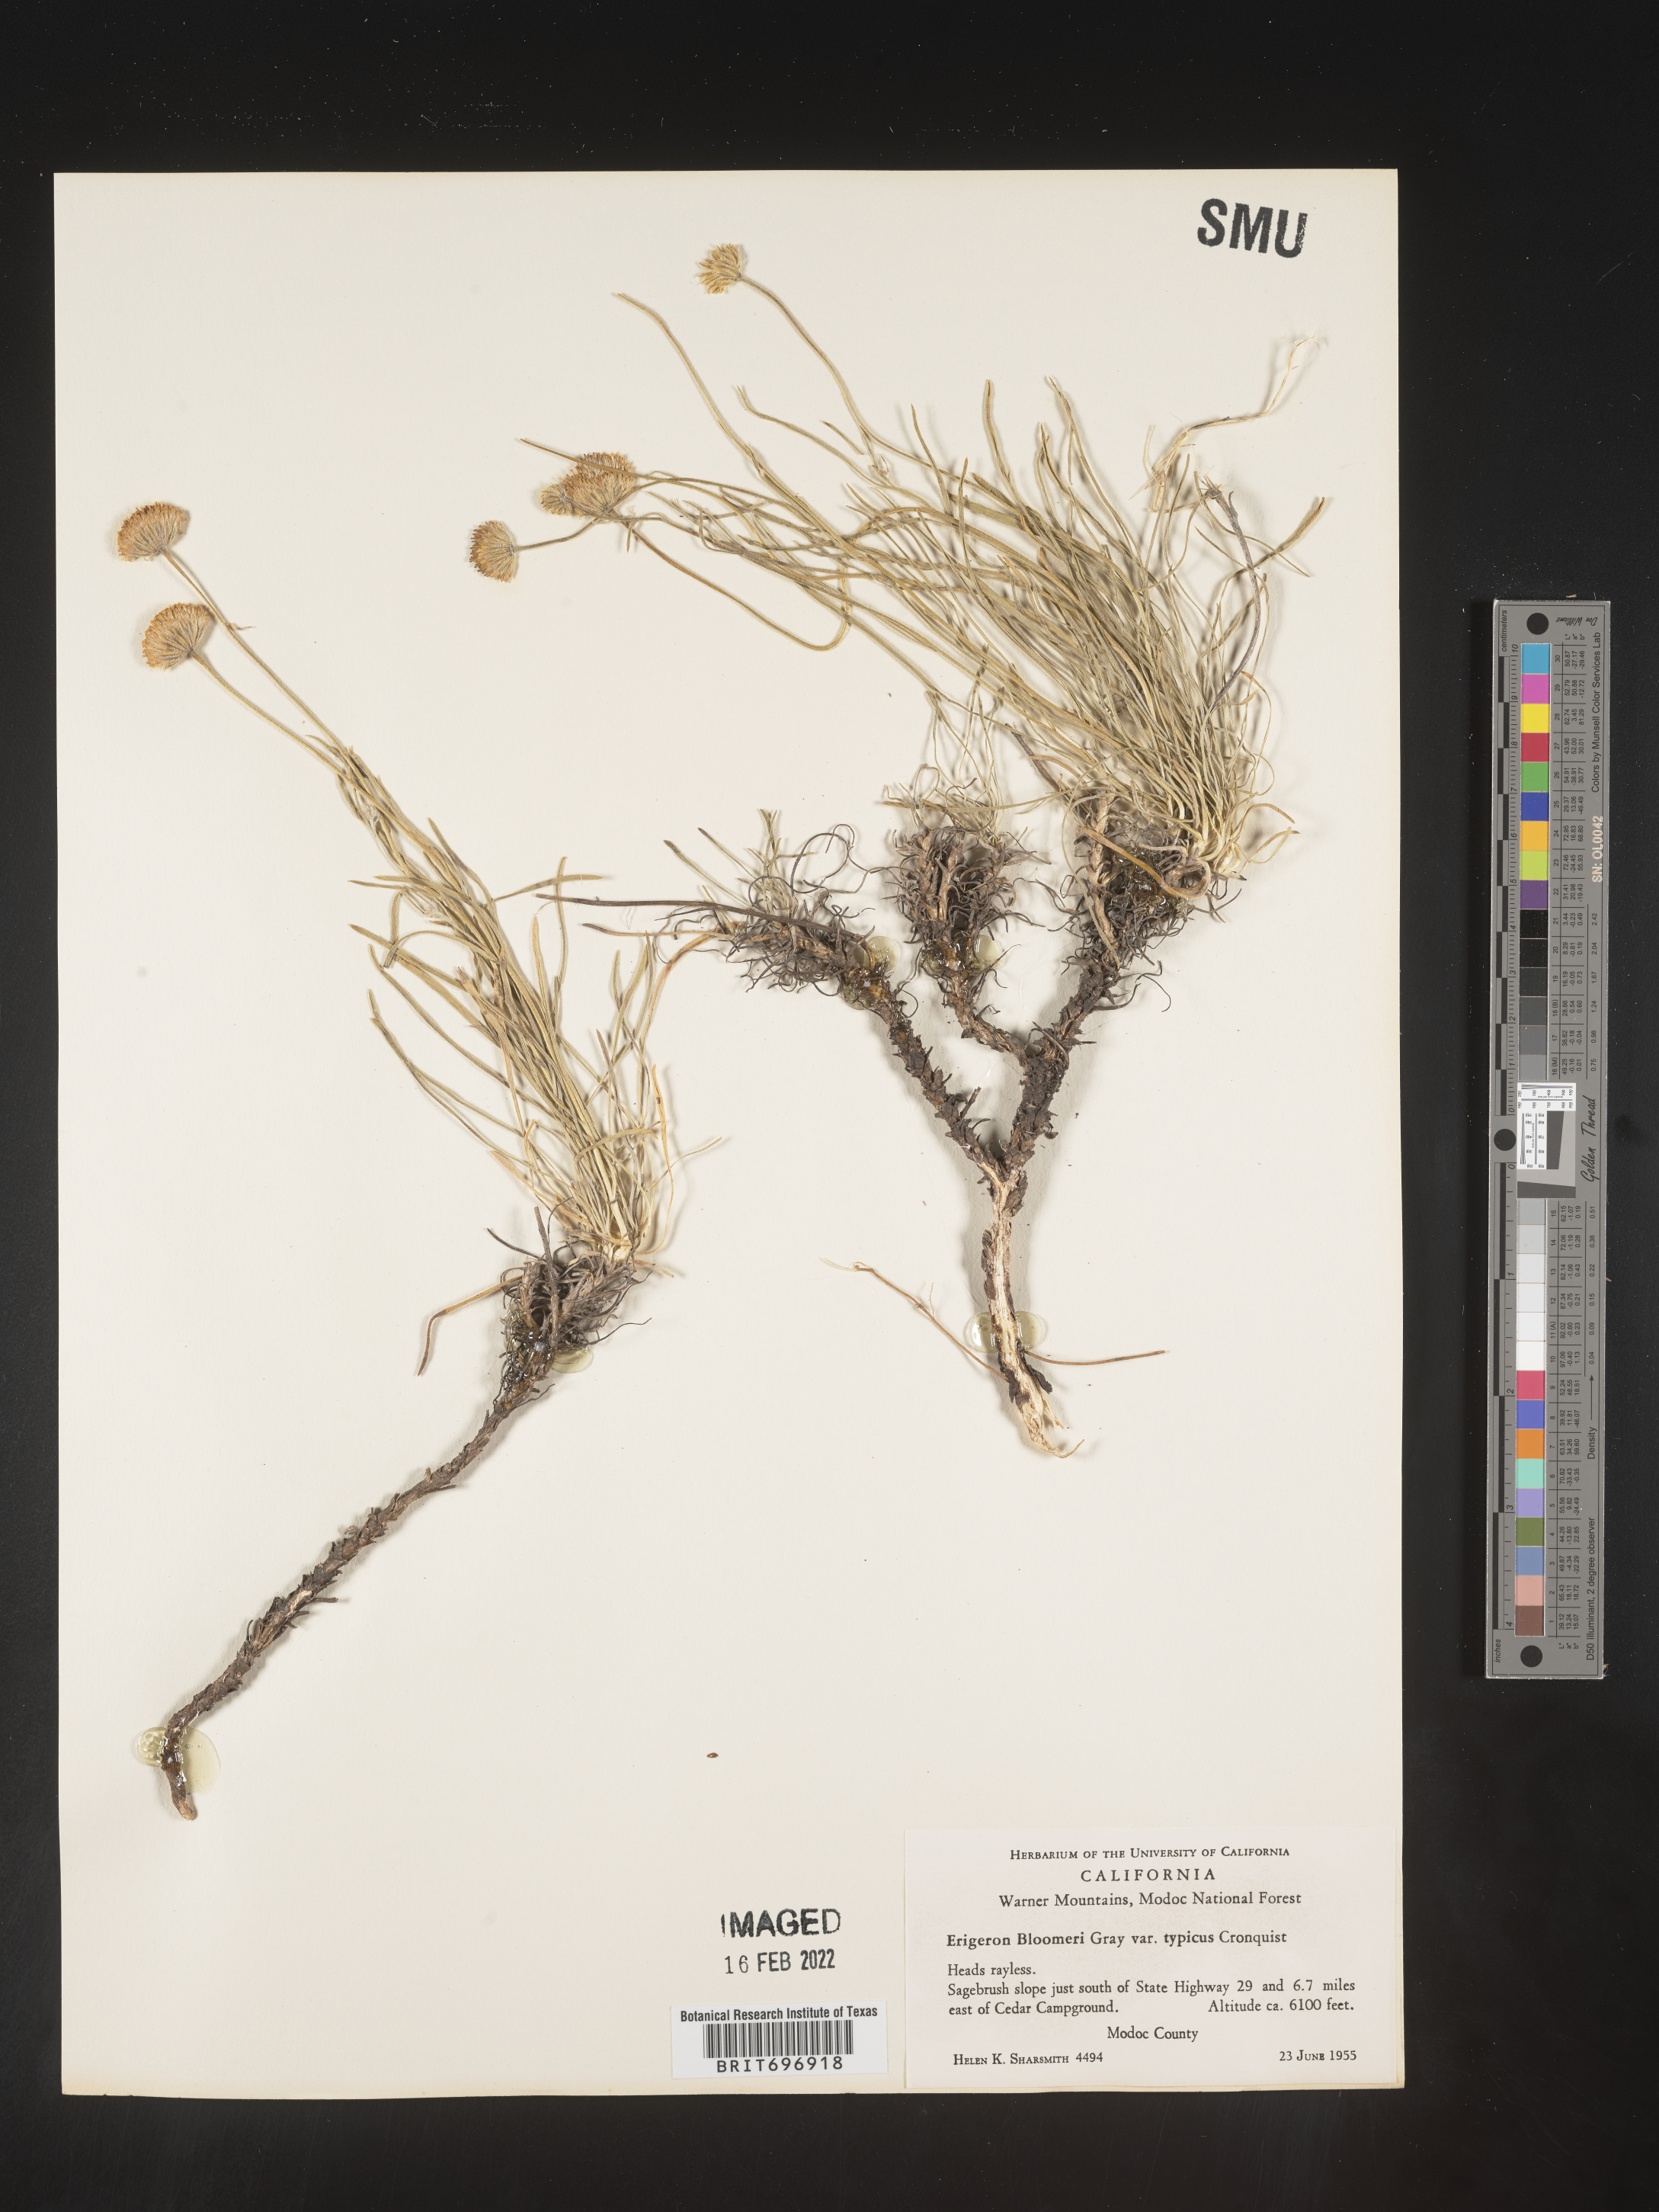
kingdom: Plantae
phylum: Tracheophyta
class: Magnoliopsida
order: Asterales
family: Asteraceae
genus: Erigeron
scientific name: Erigeron bloomeri
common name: Bloomer's fleabane
